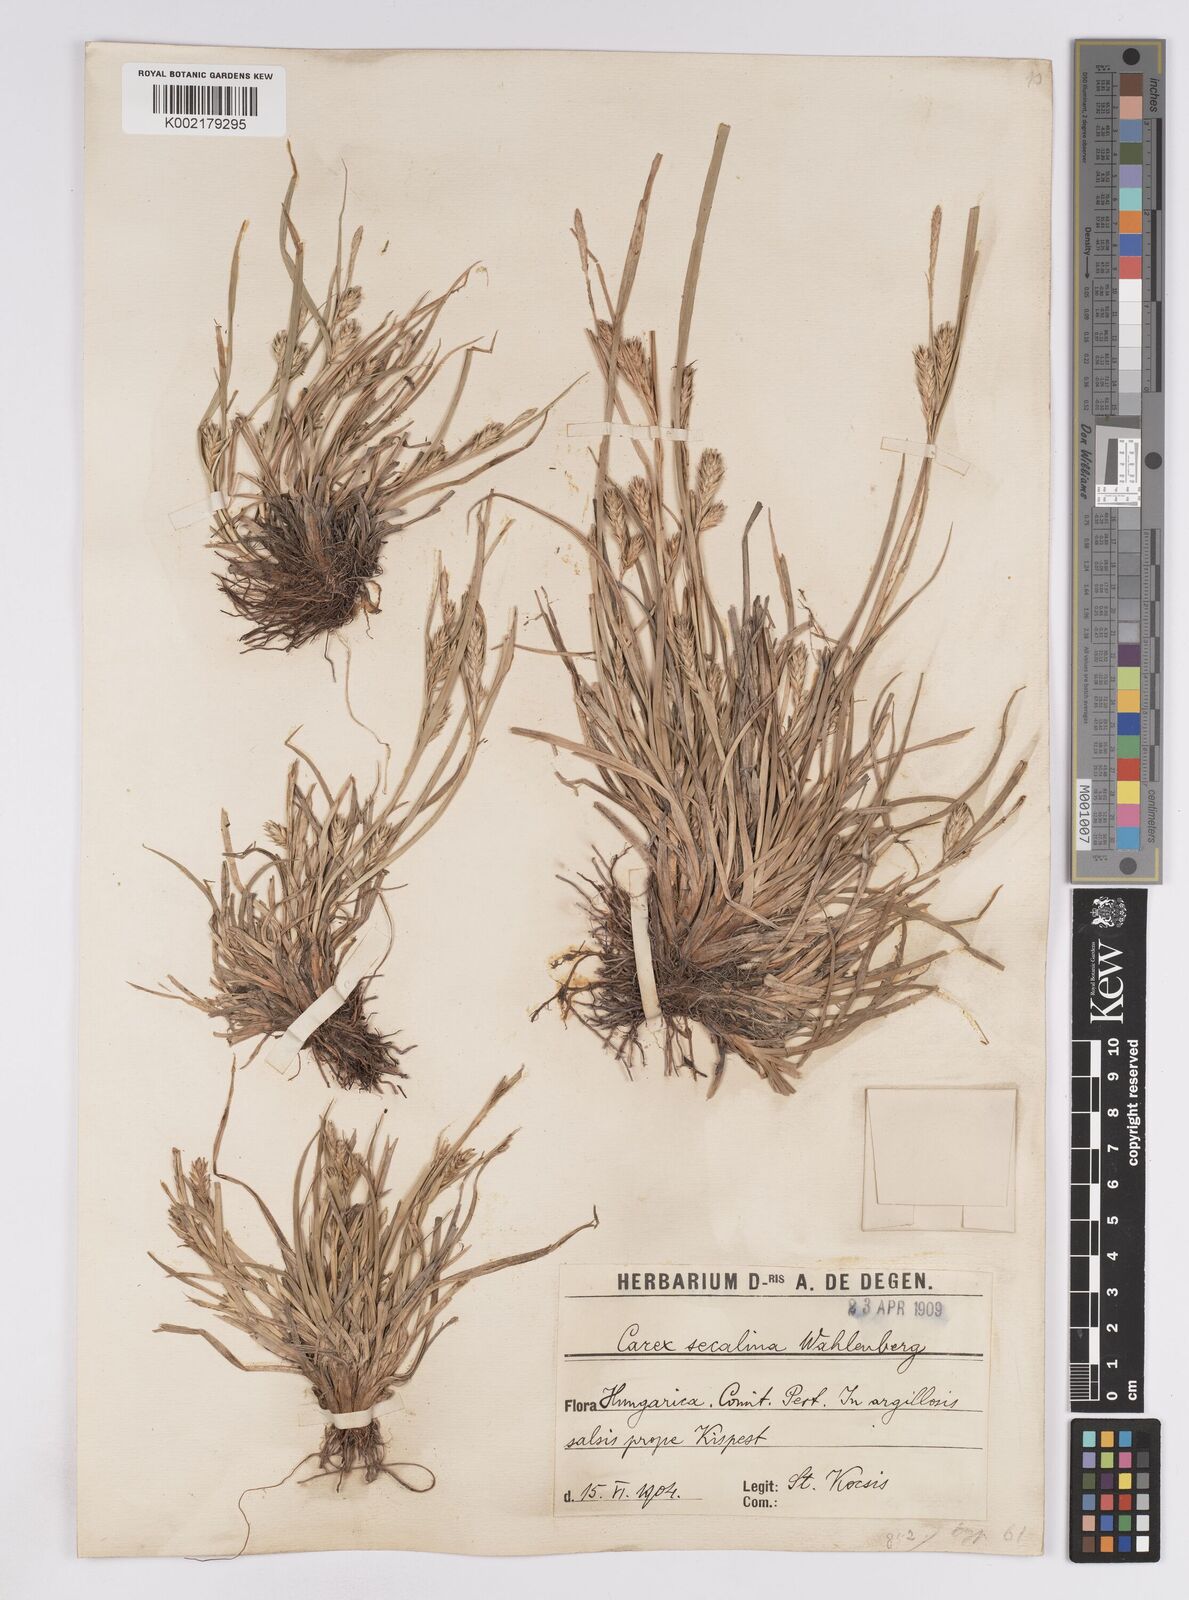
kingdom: Plantae
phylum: Tracheophyta
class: Liliopsida
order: Poales
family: Cyperaceae
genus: Carex
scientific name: Carex hordeistichos
